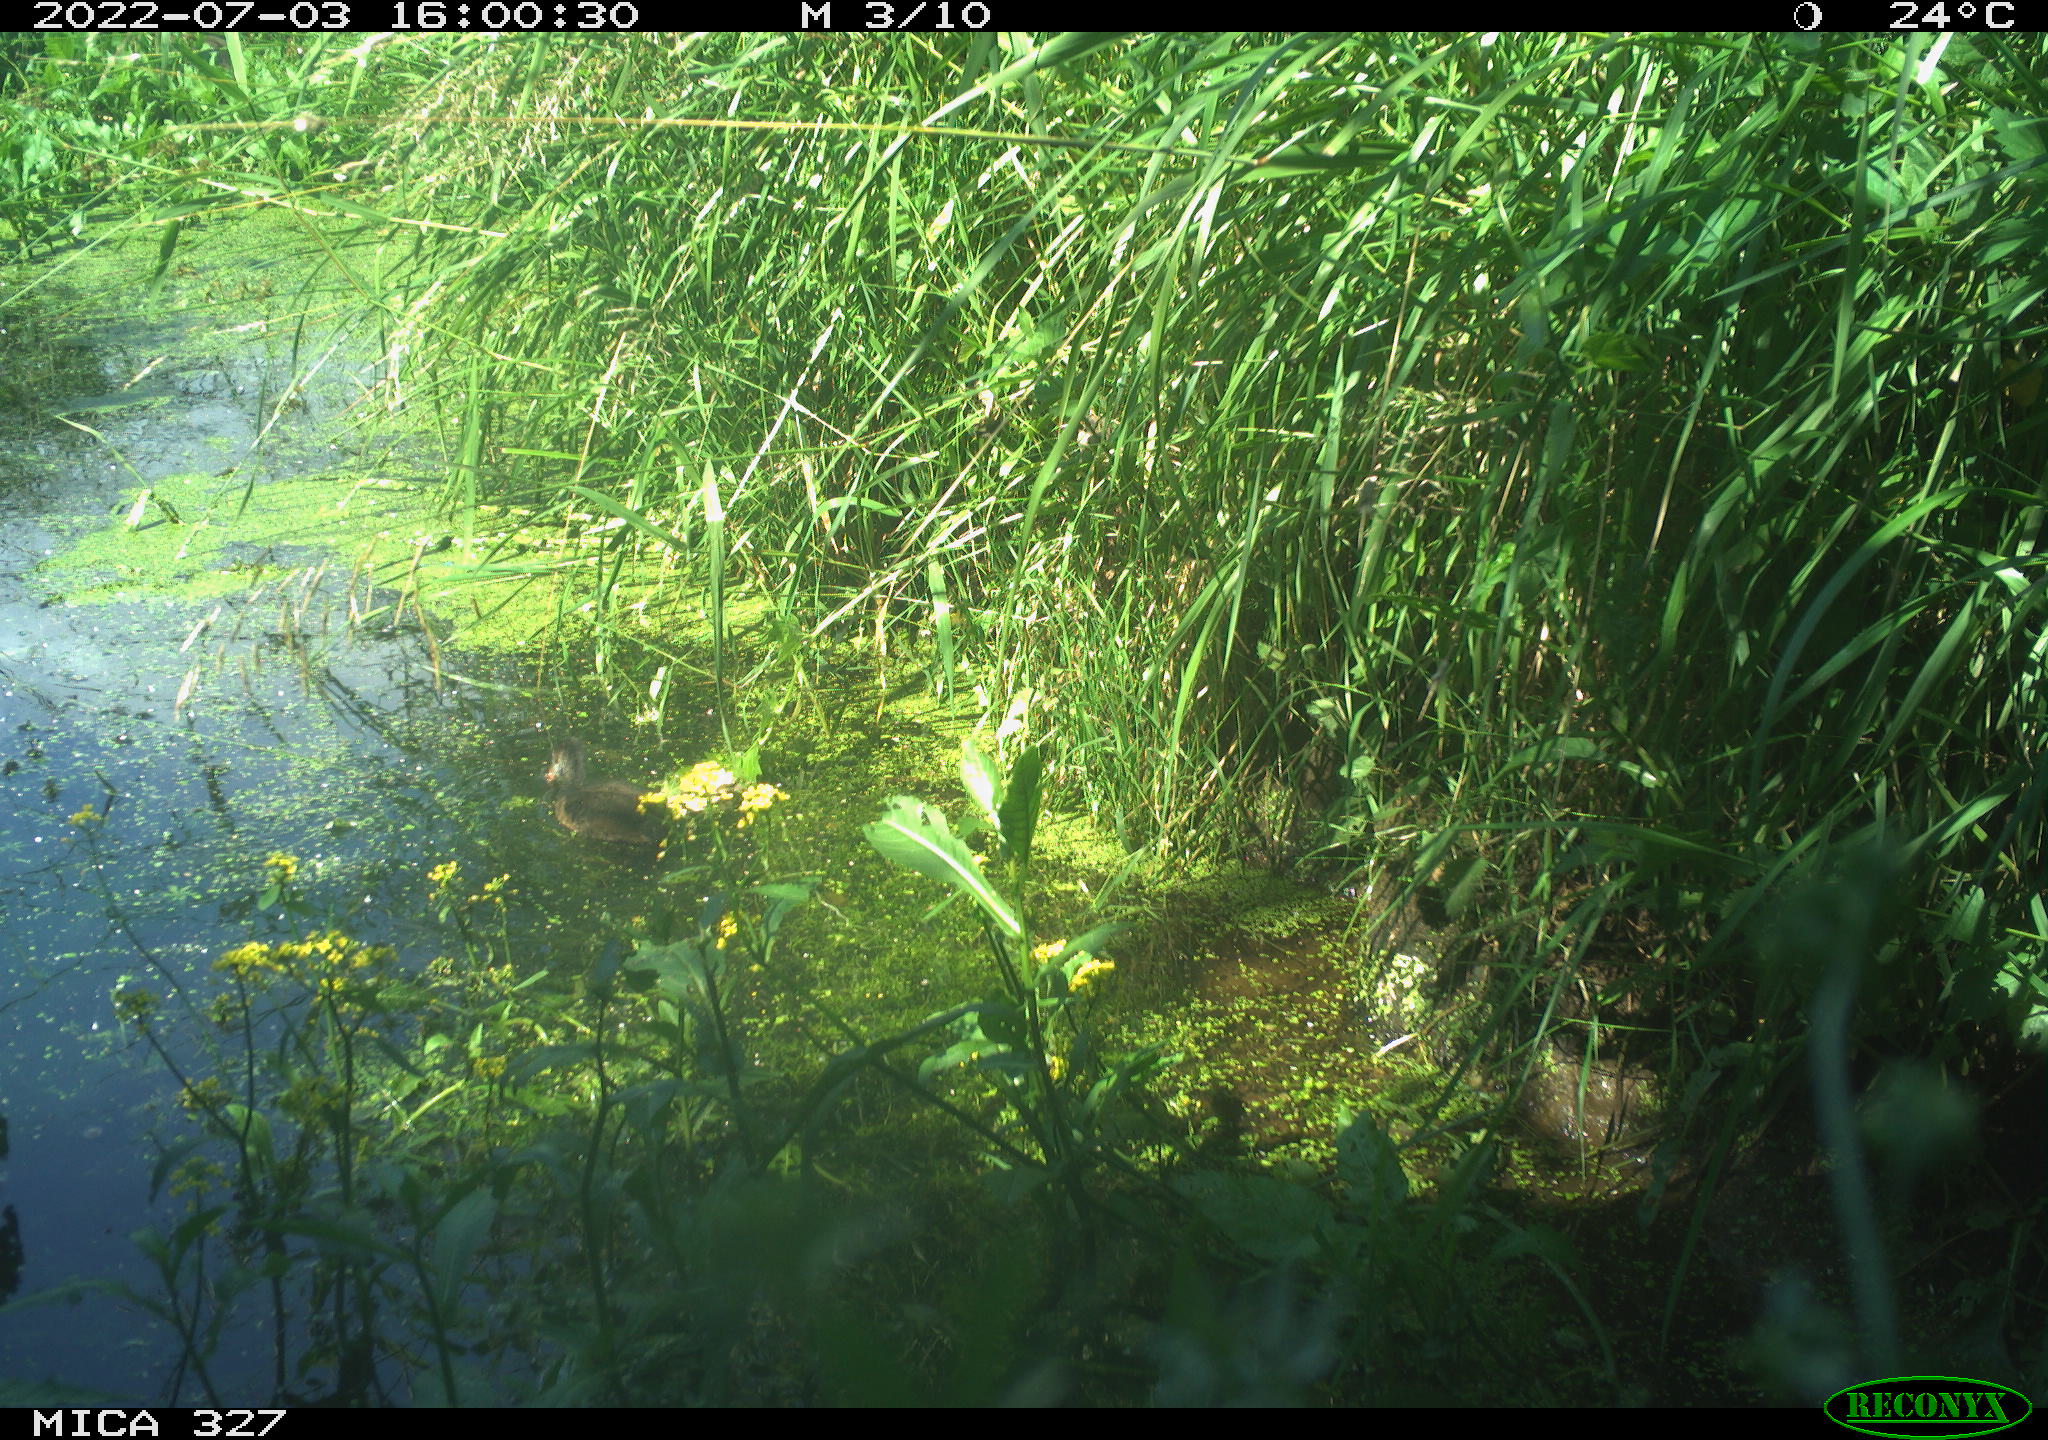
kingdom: Animalia
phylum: Chordata
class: Aves
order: Gruiformes
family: Rallidae
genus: Gallinula
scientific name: Gallinula chloropus
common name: Common moorhen
